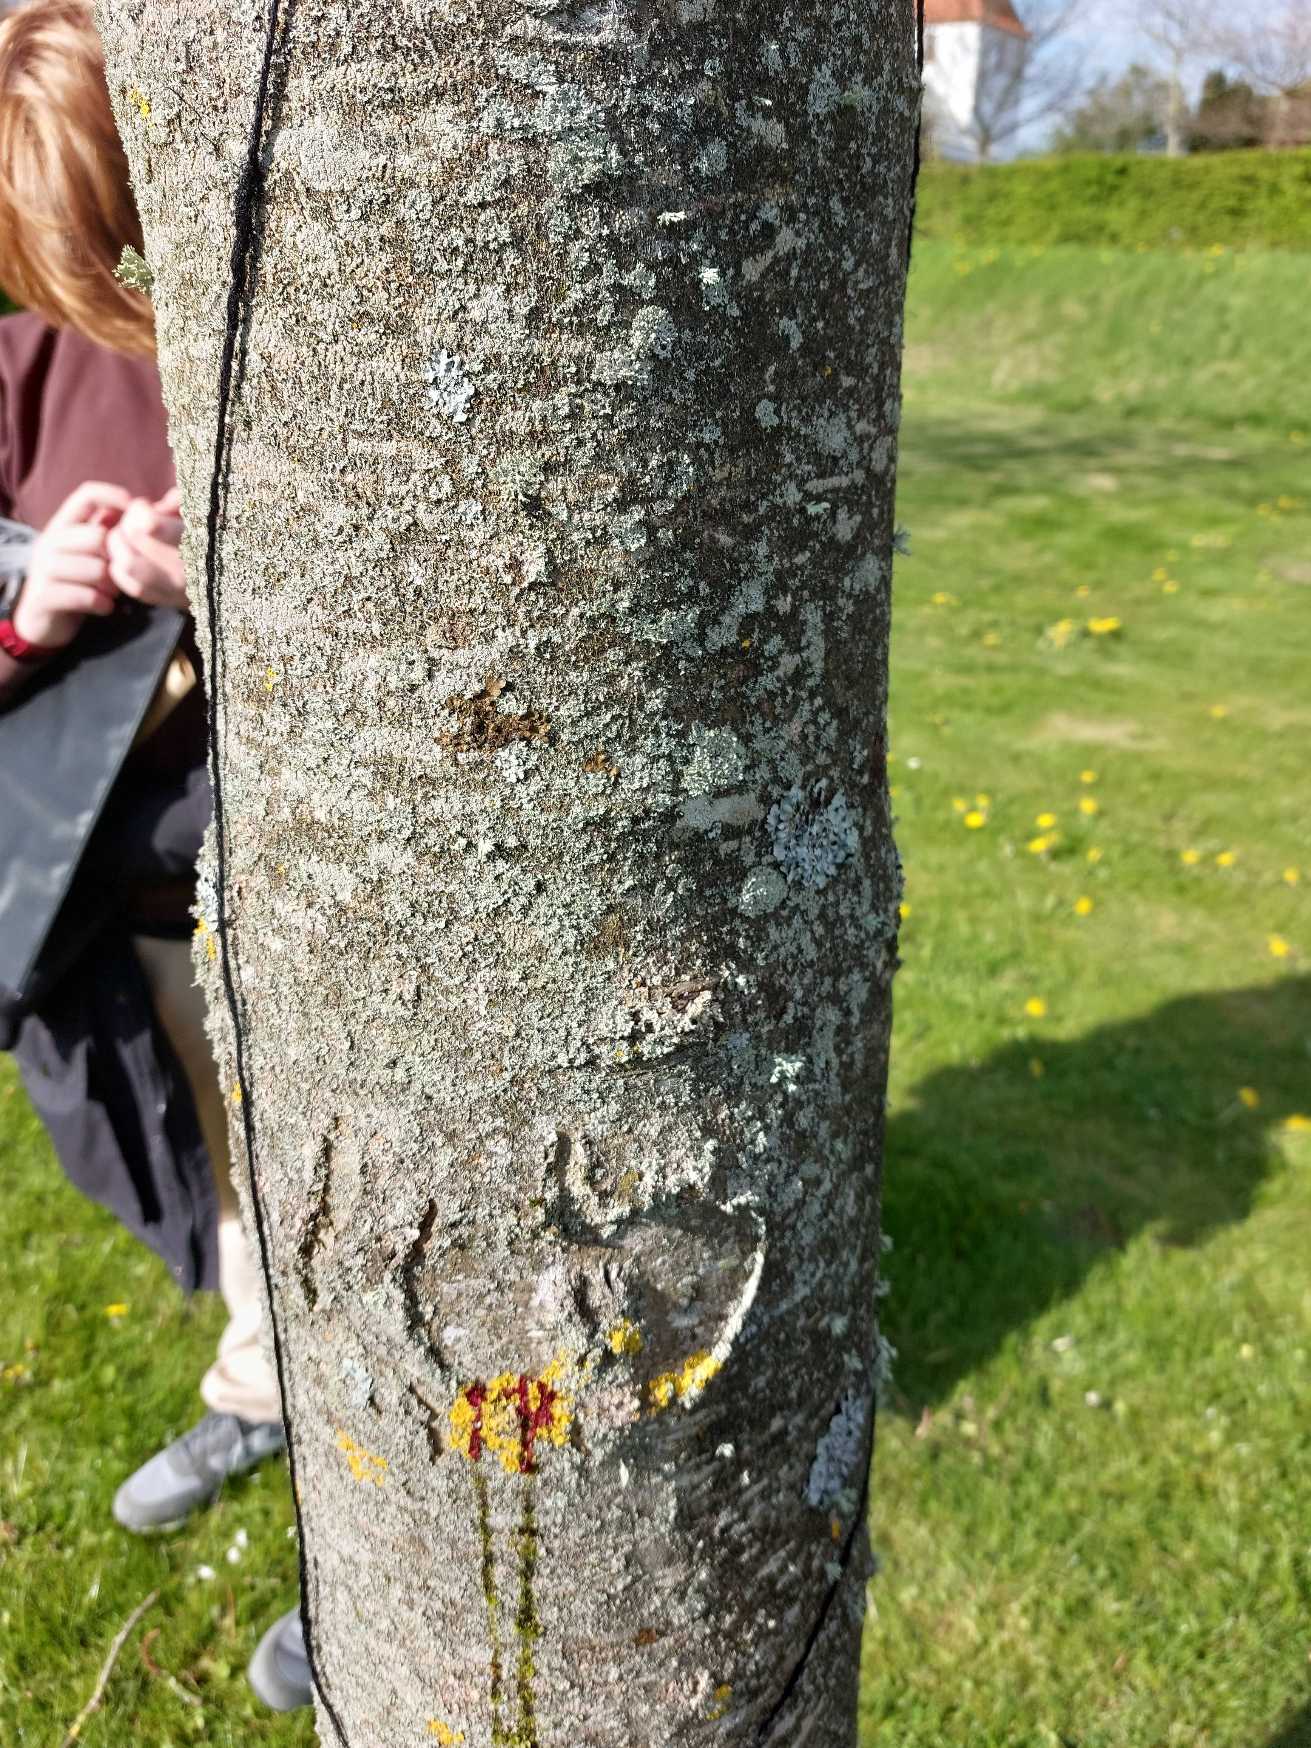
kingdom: Fungi
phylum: Ascomycota
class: Lecanoromycetes
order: Lecanorales
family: Parmeliaceae
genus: Melanelixia
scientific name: Melanelixia subaurifera
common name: Guldpudret skållav
